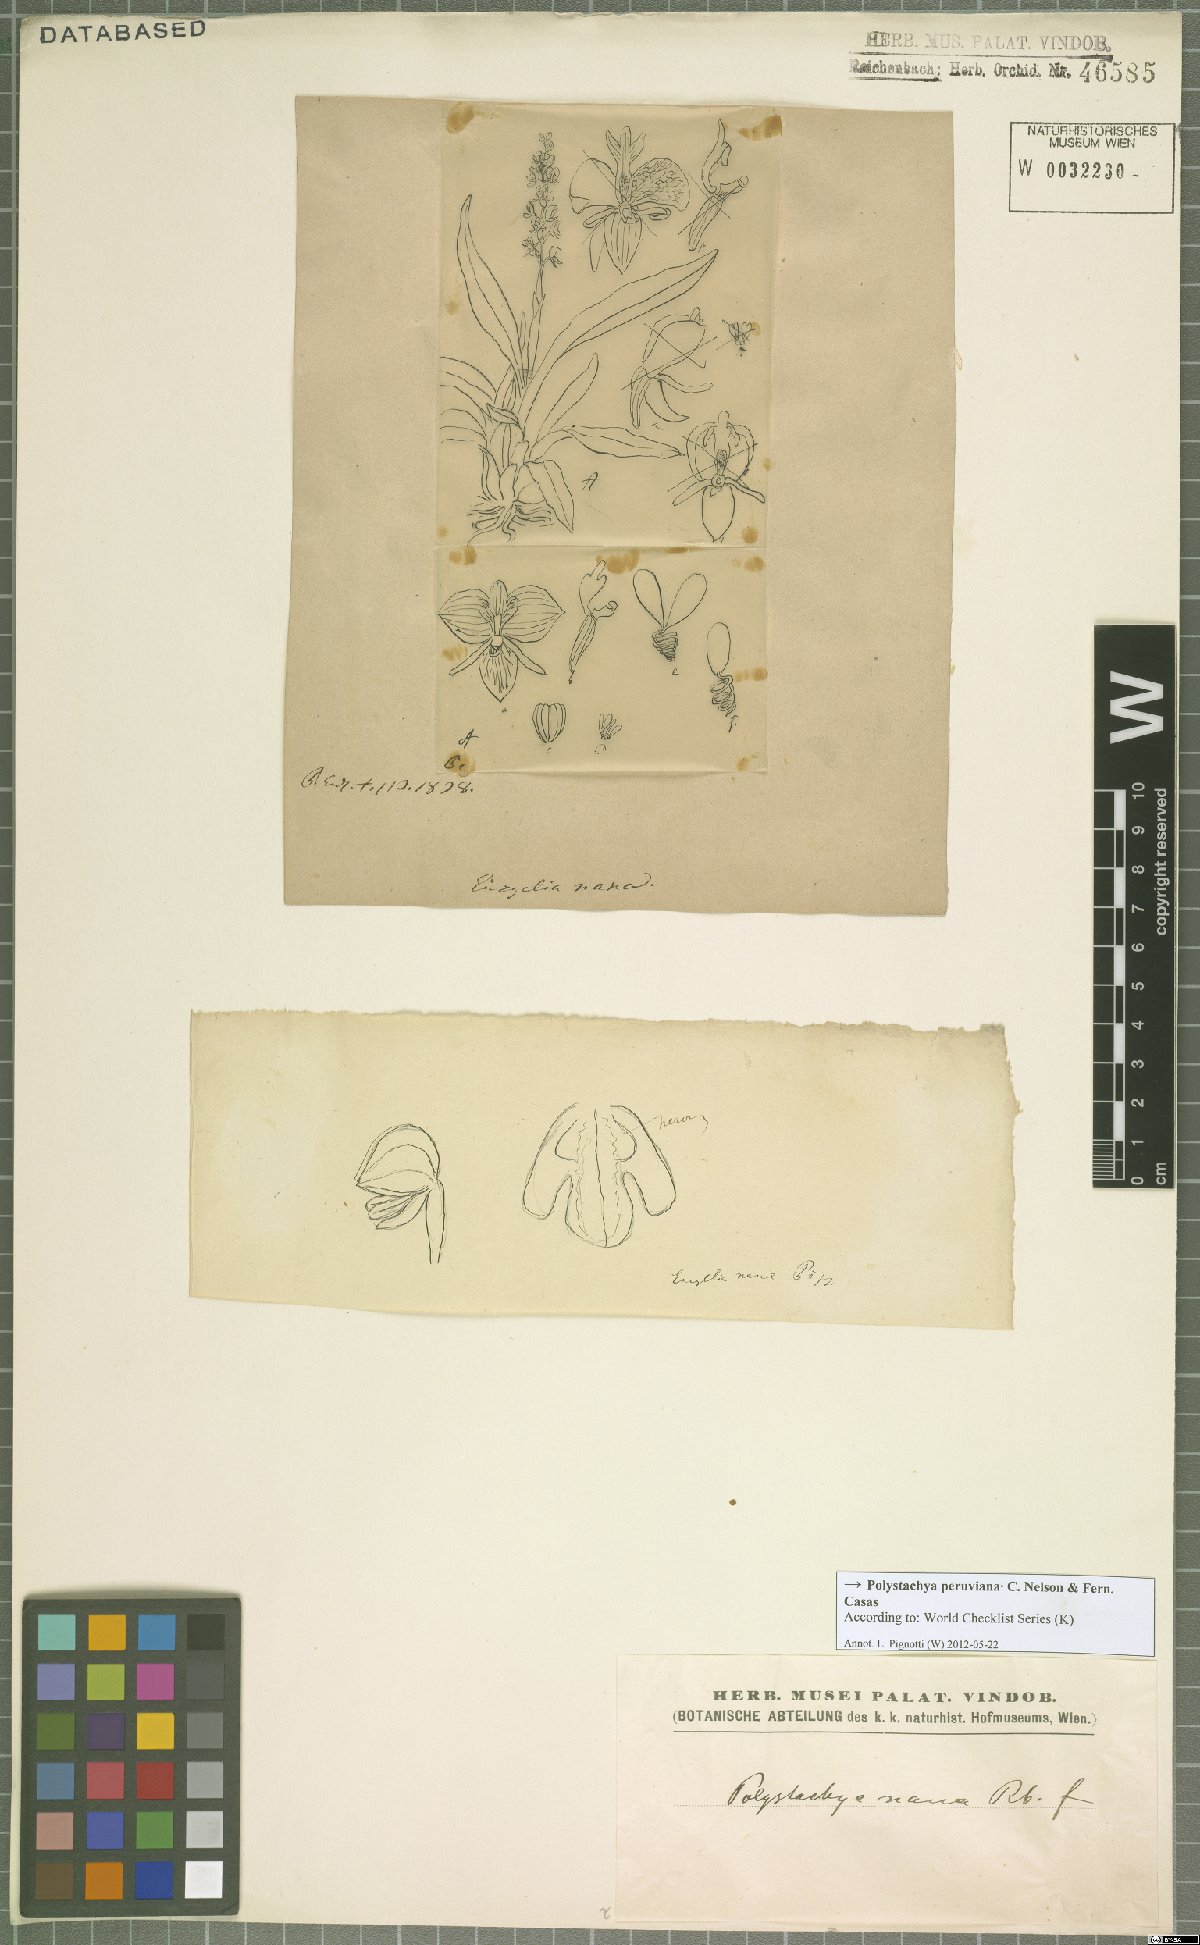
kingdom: Plantae
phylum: Tracheophyta
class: Liliopsida
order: Asparagales
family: Orchidaceae
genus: Polystachya
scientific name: Polystachya paulensis
